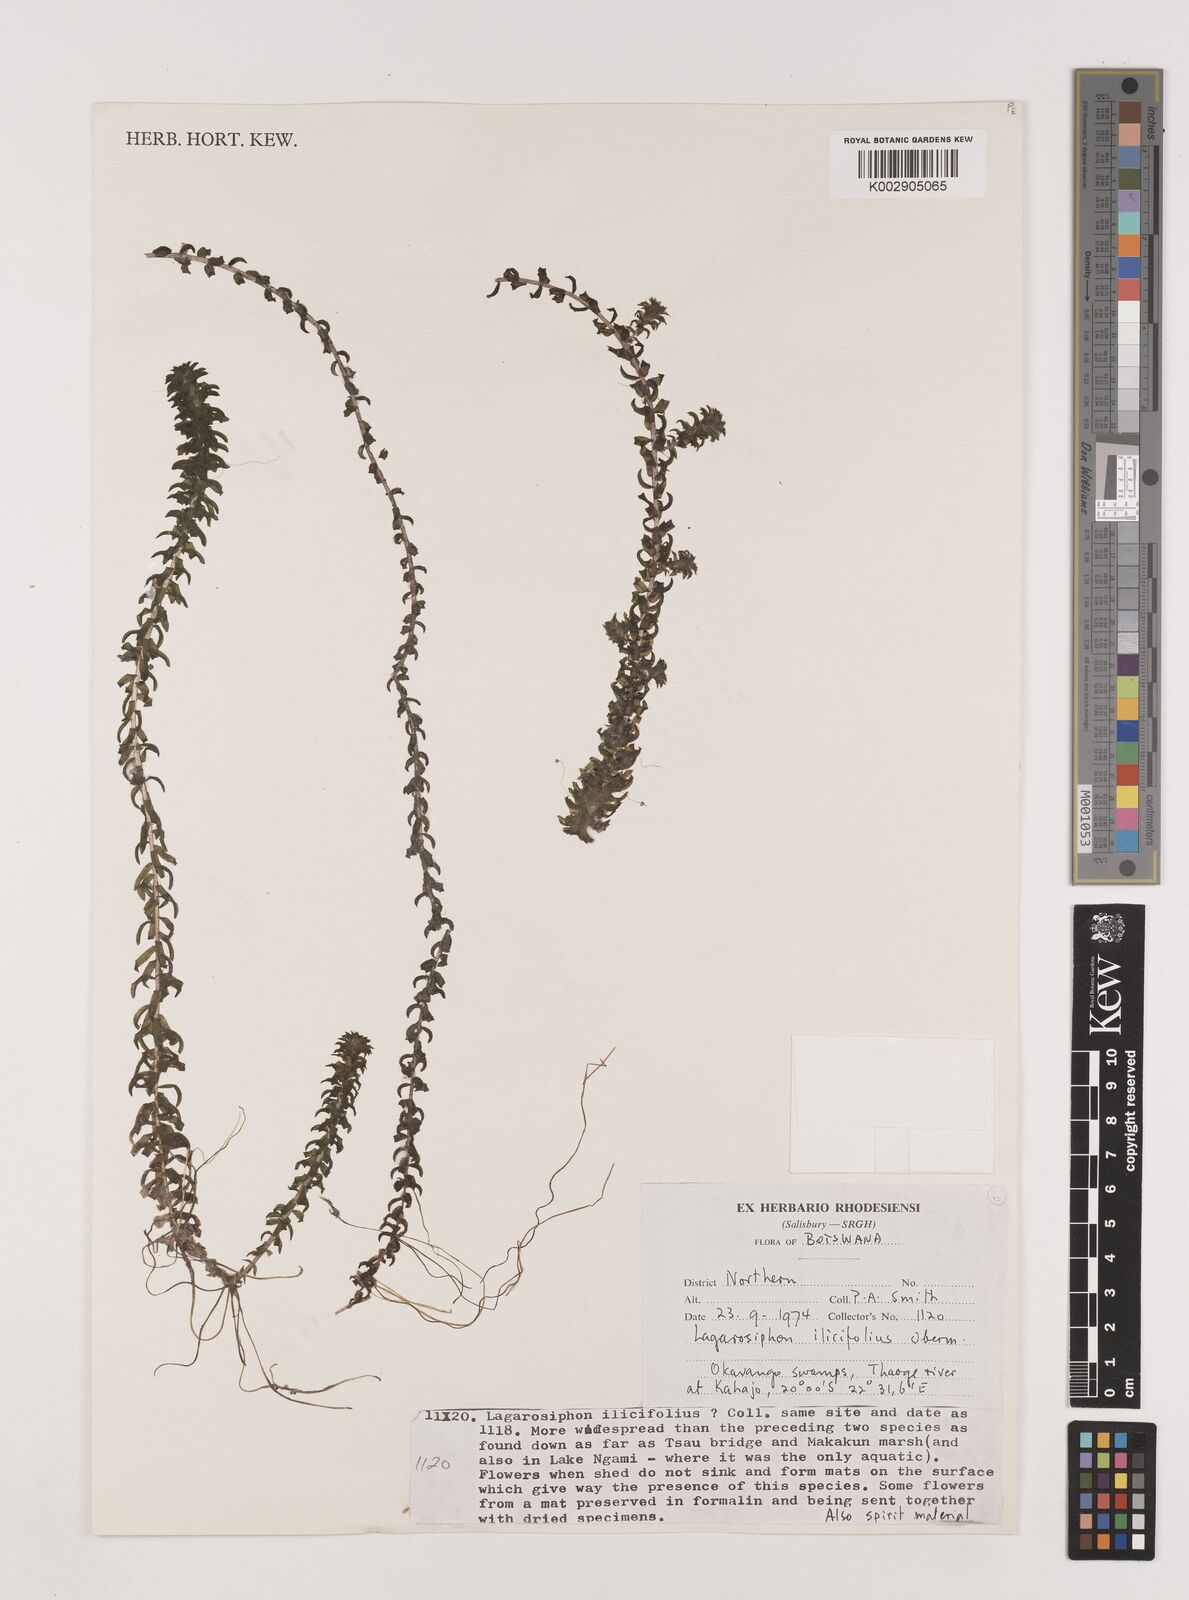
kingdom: Plantae
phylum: Tracheophyta
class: Liliopsida
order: Alismatales
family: Hydrocharitaceae
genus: Lagarosiphon
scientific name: Lagarosiphon ilicifolius
